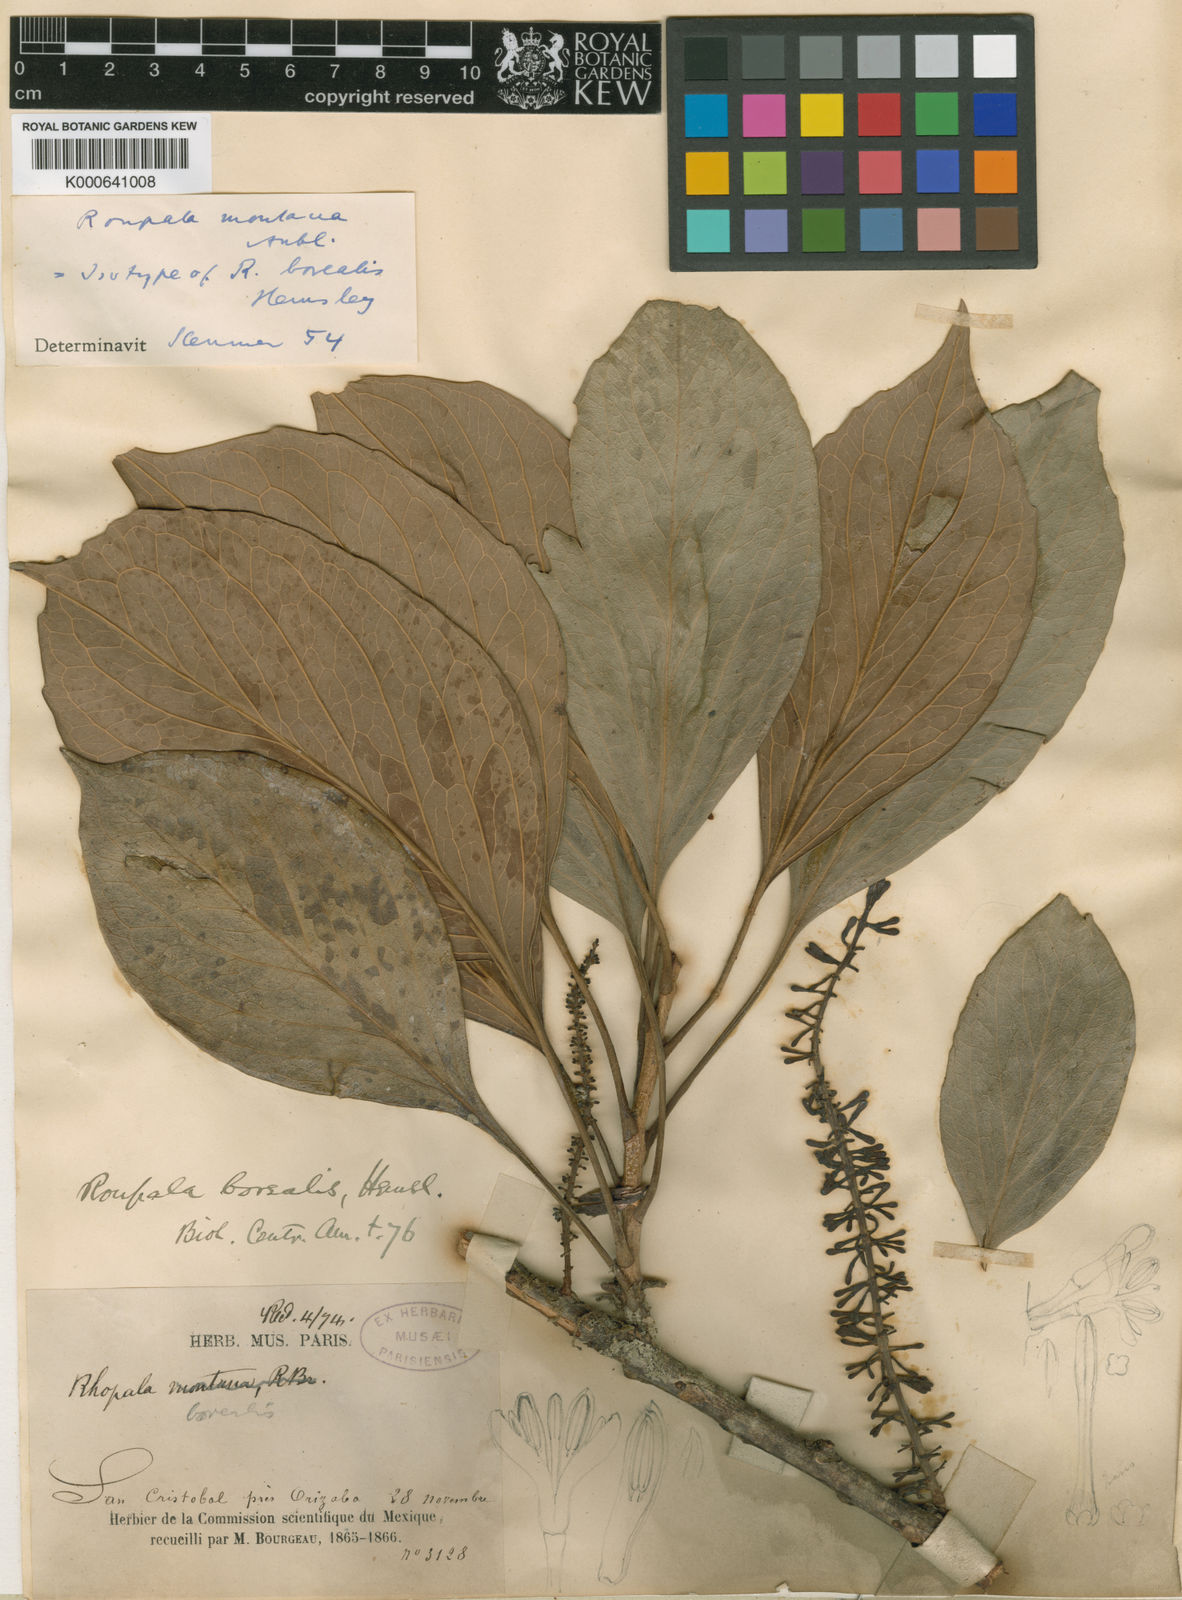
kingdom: Plantae
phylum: Tracheophyta
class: Magnoliopsida
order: Proteales
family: Proteaceae
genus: Roupala
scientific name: Roupala montana
